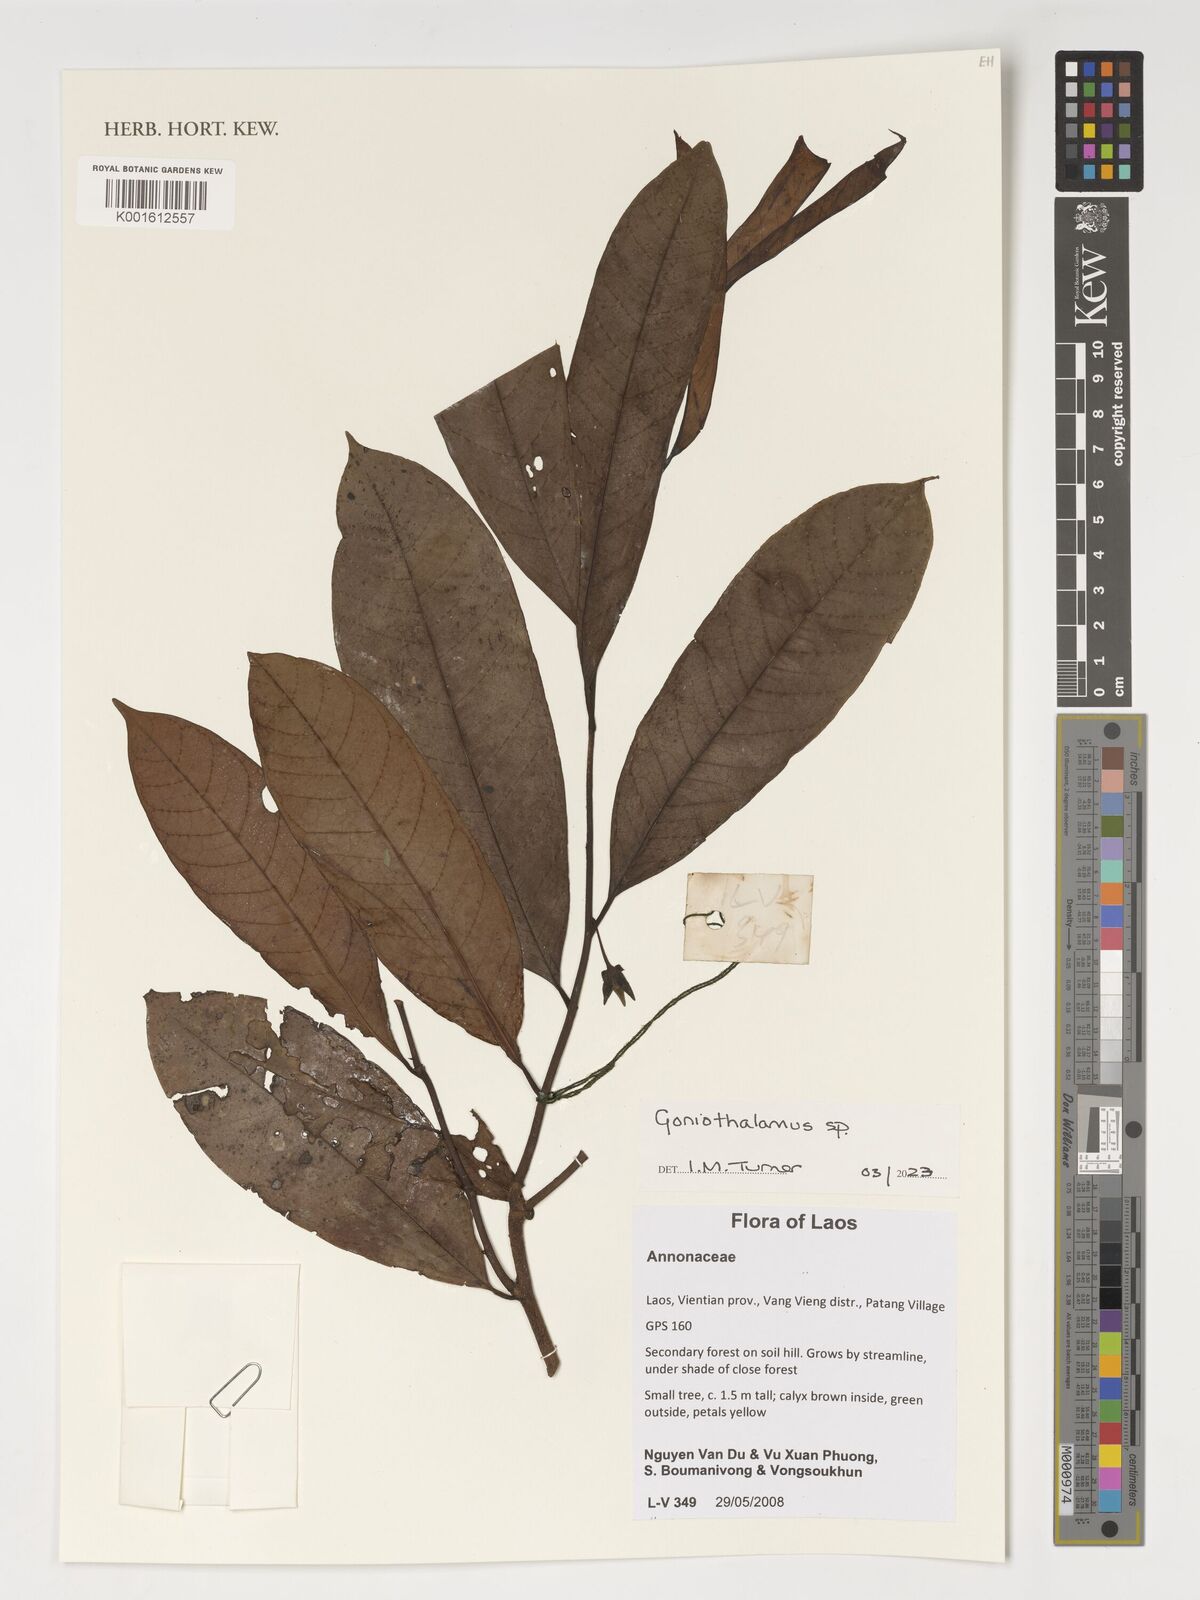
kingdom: Plantae
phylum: Tracheophyta
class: Magnoliopsida
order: Magnoliales
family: Annonaceae
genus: Goniothalamus
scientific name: Goniothalamus
